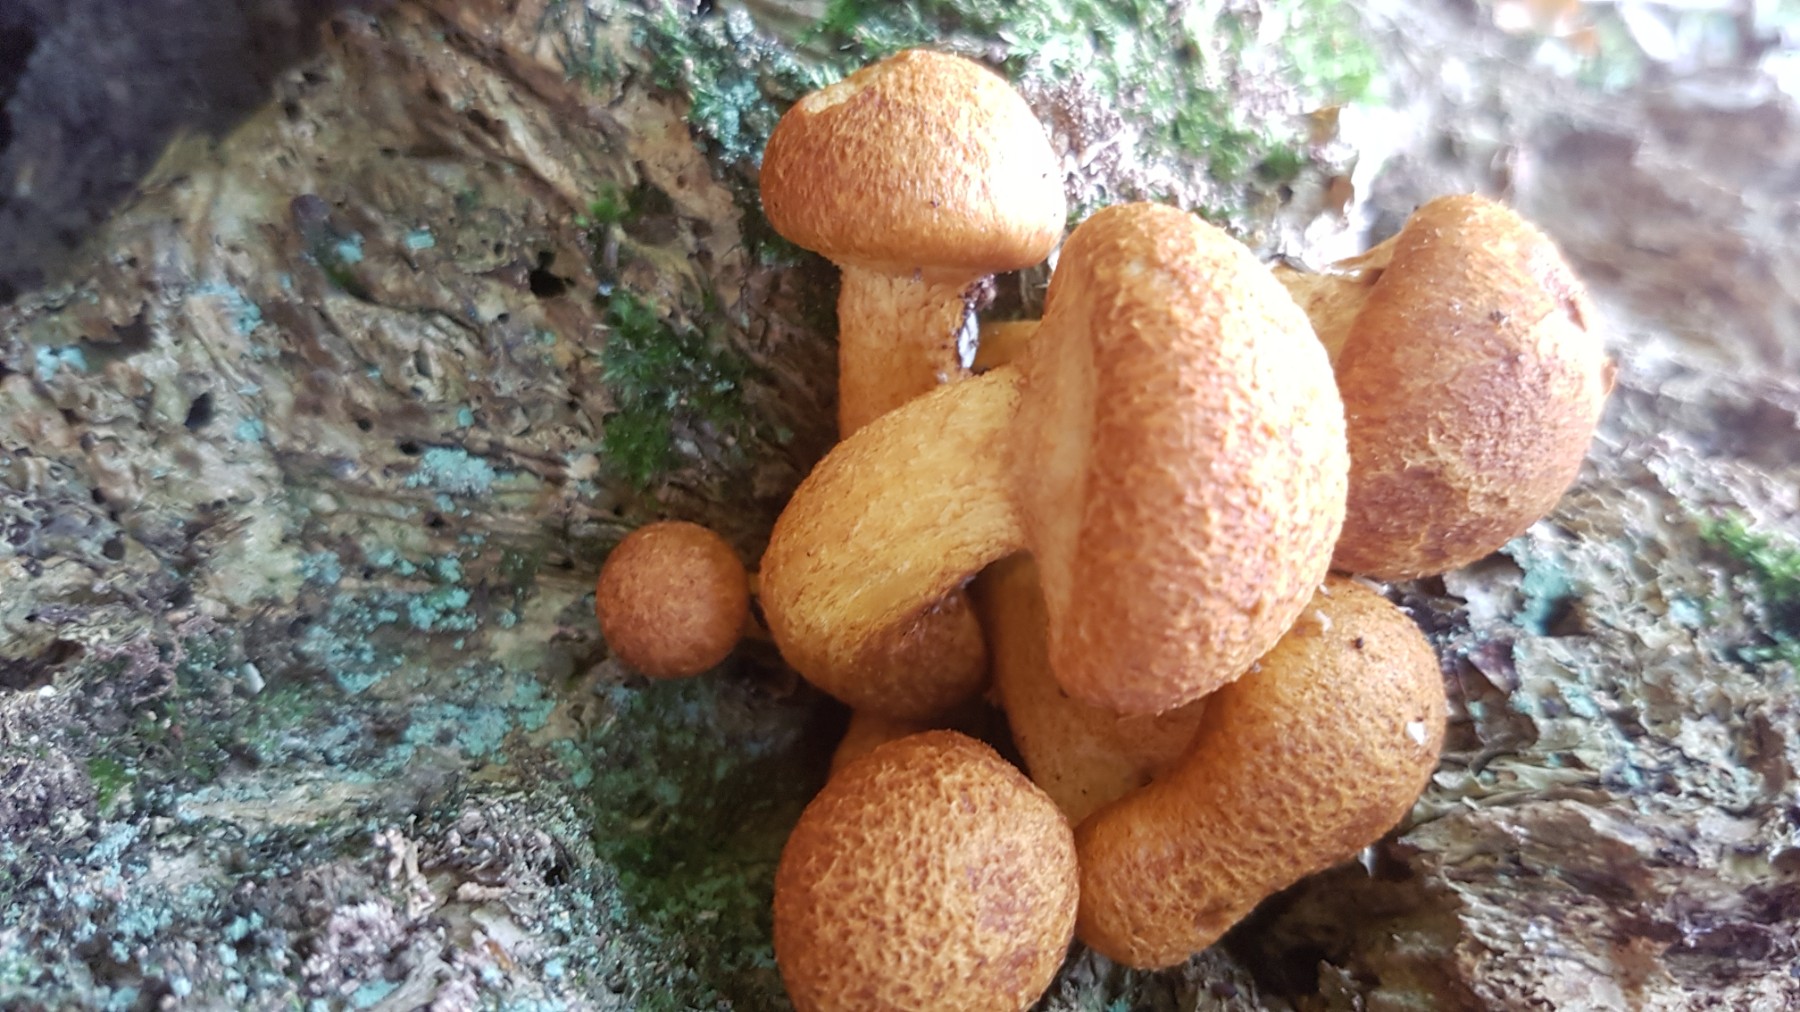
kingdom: Fungi
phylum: Basidiomycota
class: Agaricomycetes
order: Agaricales
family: Hymenogastraceae
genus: Gymnopilus
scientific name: Gymnopilus spectabilis
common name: fibret flammehat
